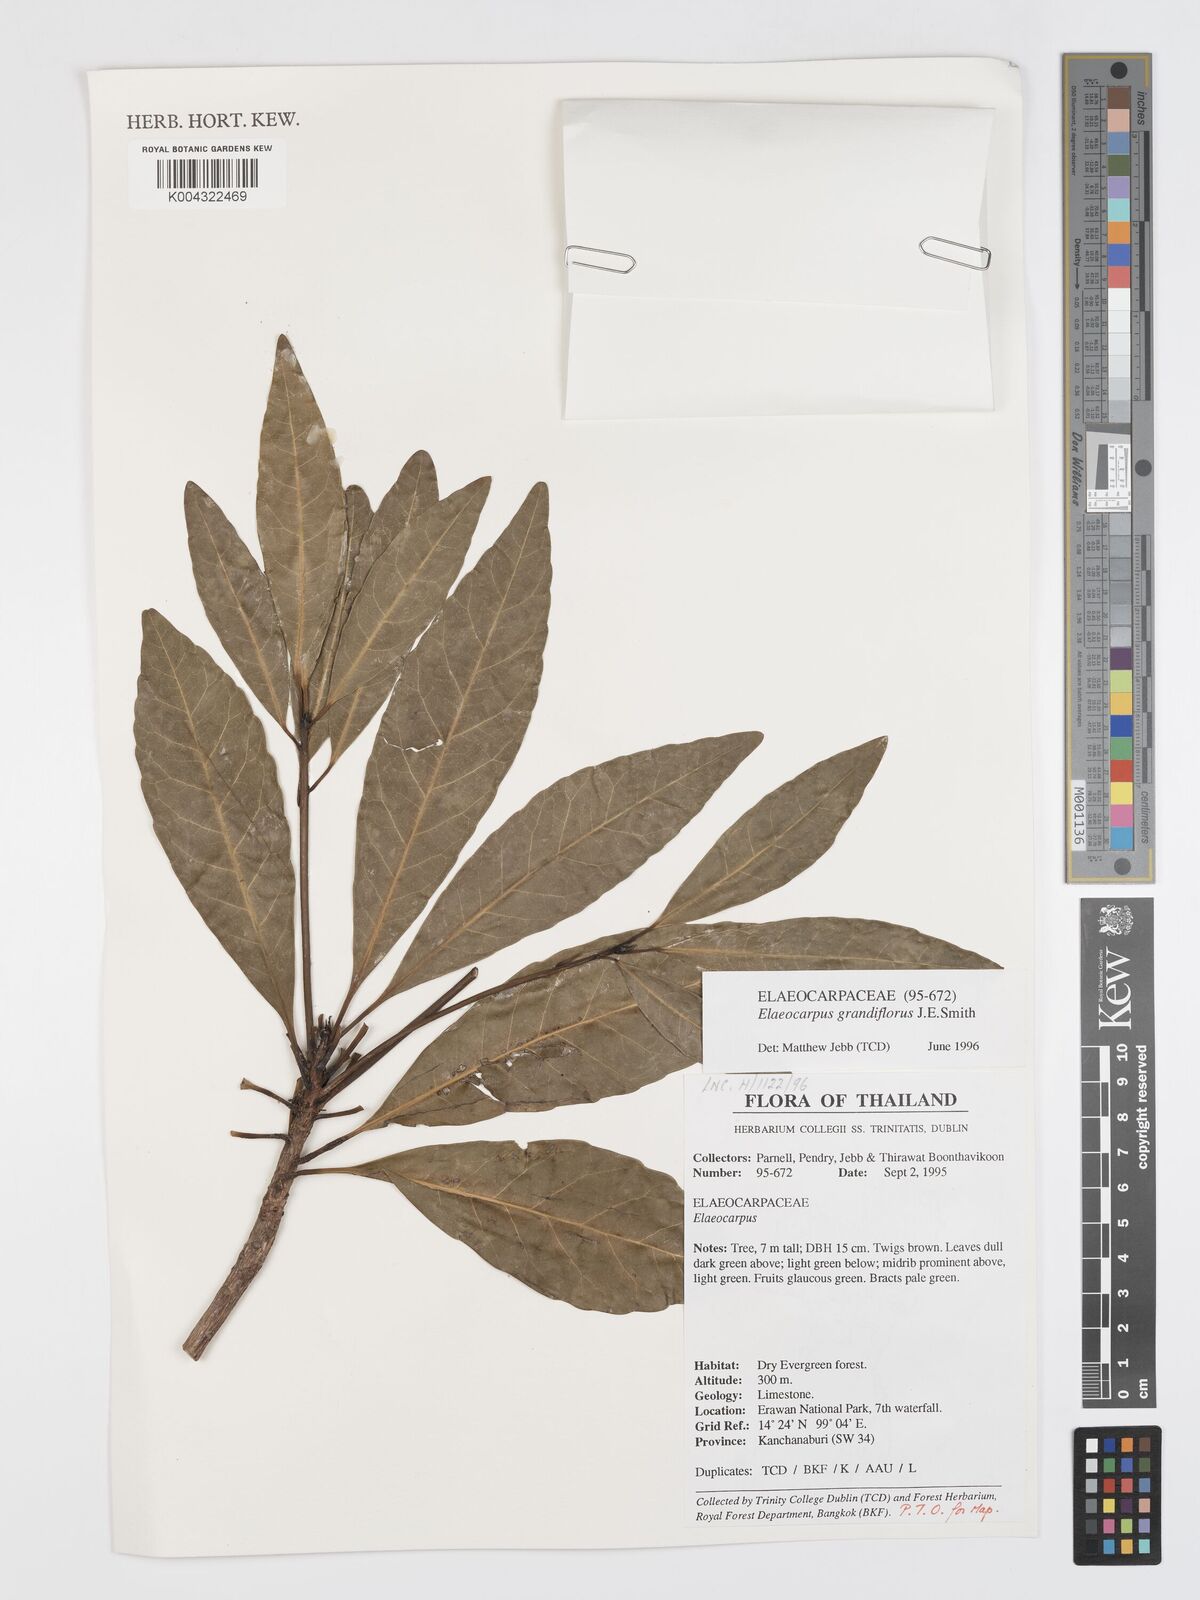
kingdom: Plantae
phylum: Tracheophyta
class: Magnoliopsida
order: Oxalidales
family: Elaeocarpaceae
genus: Elaeocarpus
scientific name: Elaeocarpus grandiflorus
